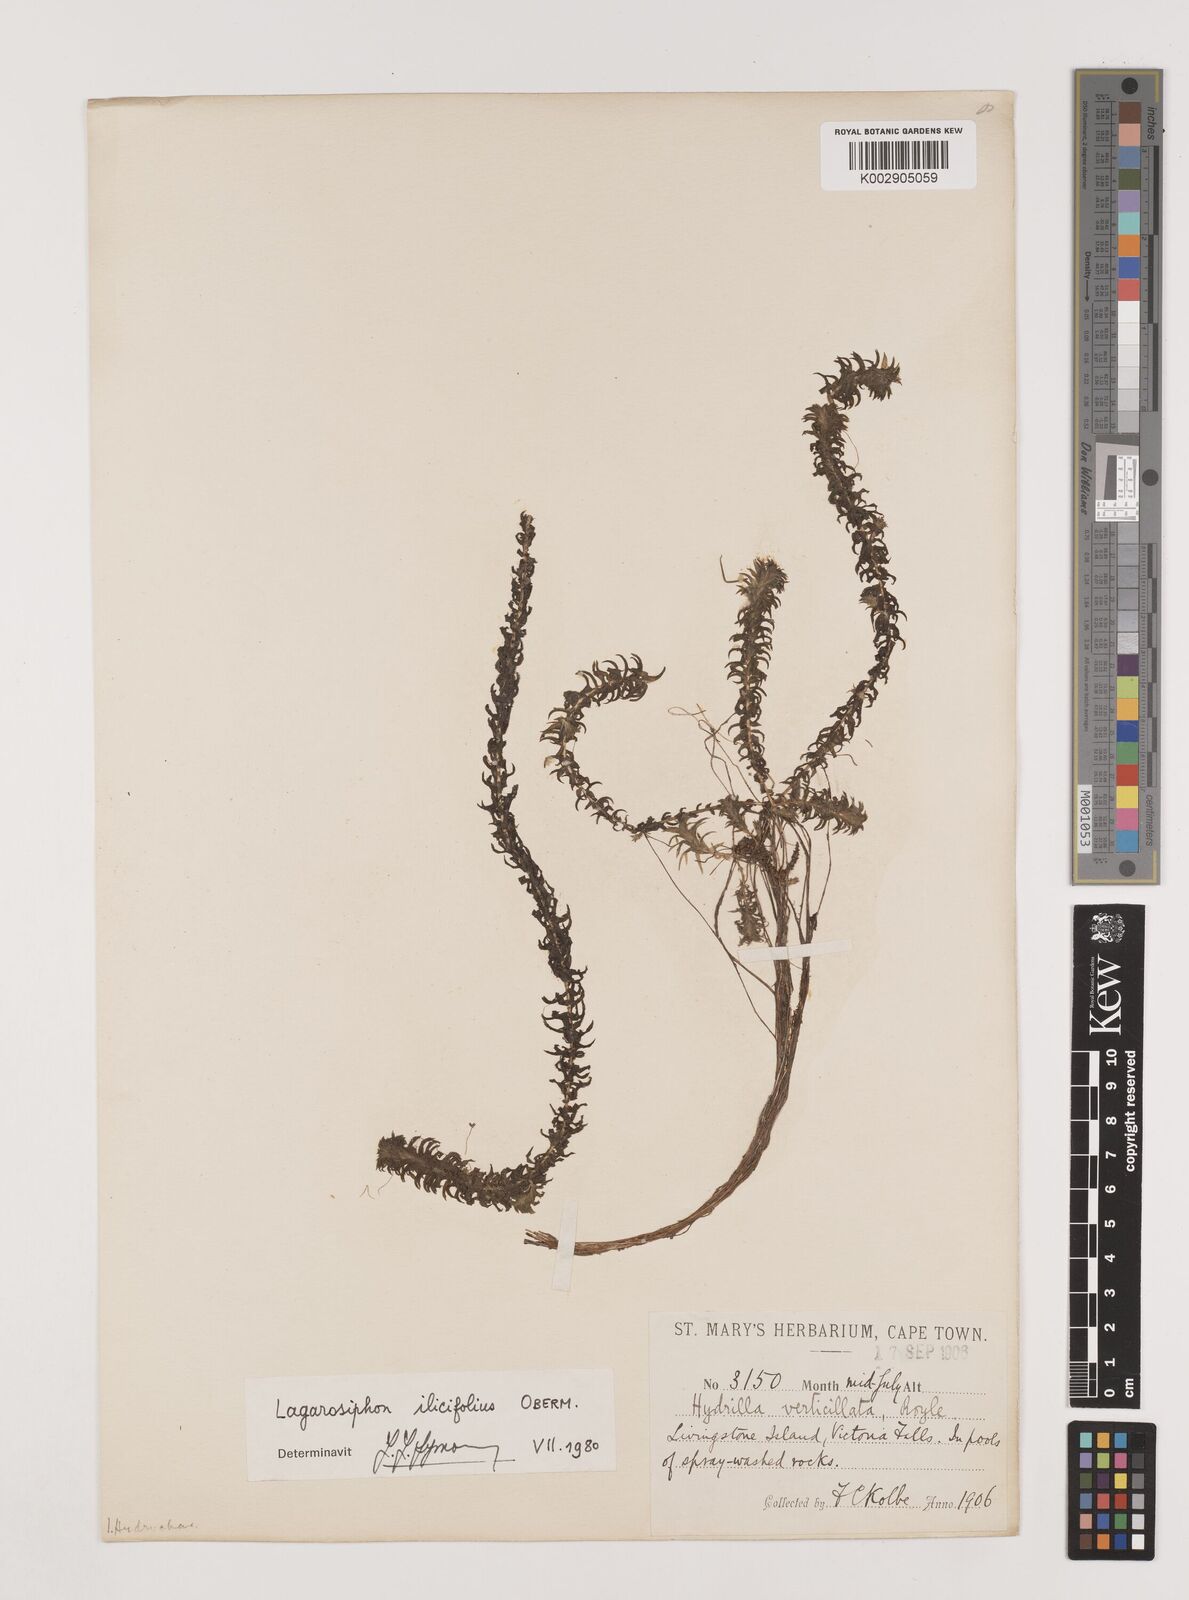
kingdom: Plantae
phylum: Tracheophyta
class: Liliopsida
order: Alismatales
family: Hydrocharitaceae
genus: Lagarosiphon
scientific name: Lagarosiphon ilicifolius
